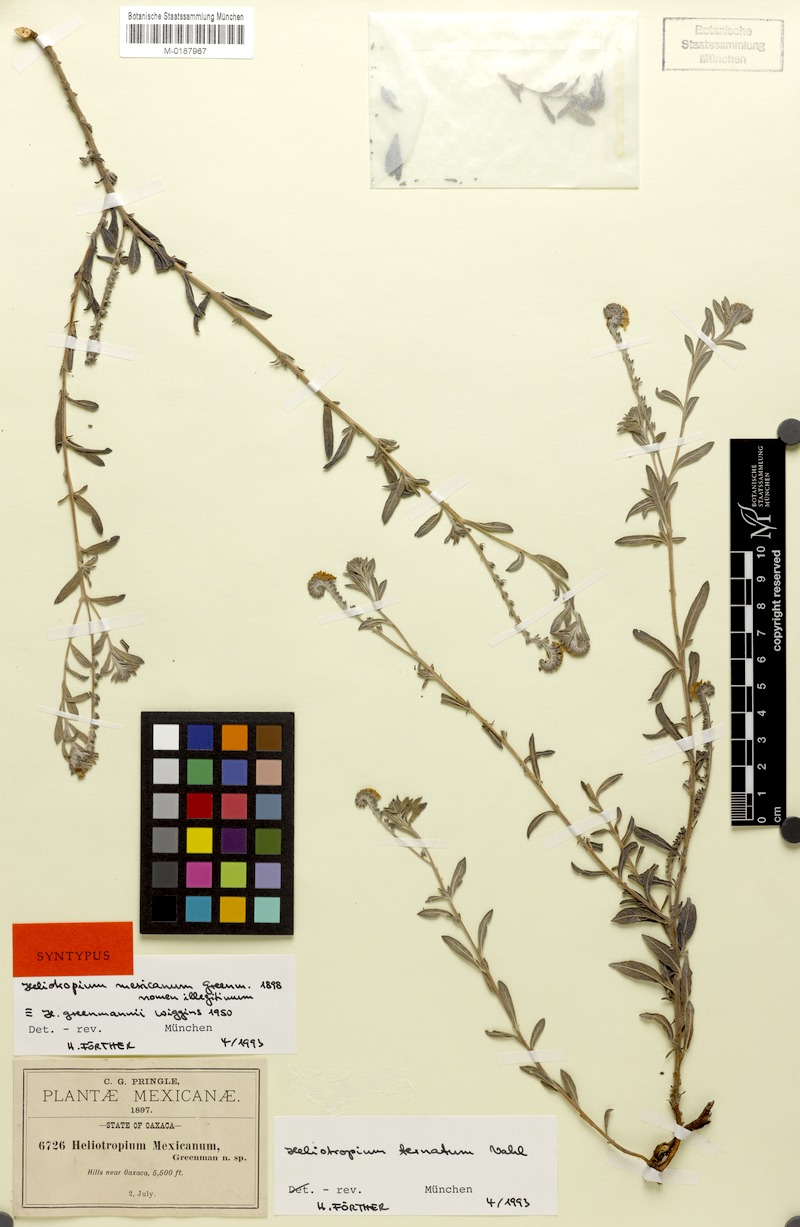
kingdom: Plantae
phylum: Tracheophyta
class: Magnoliopsida
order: Boraginales
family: Heliotropiaceae
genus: Euploca
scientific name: Euploca humilis
